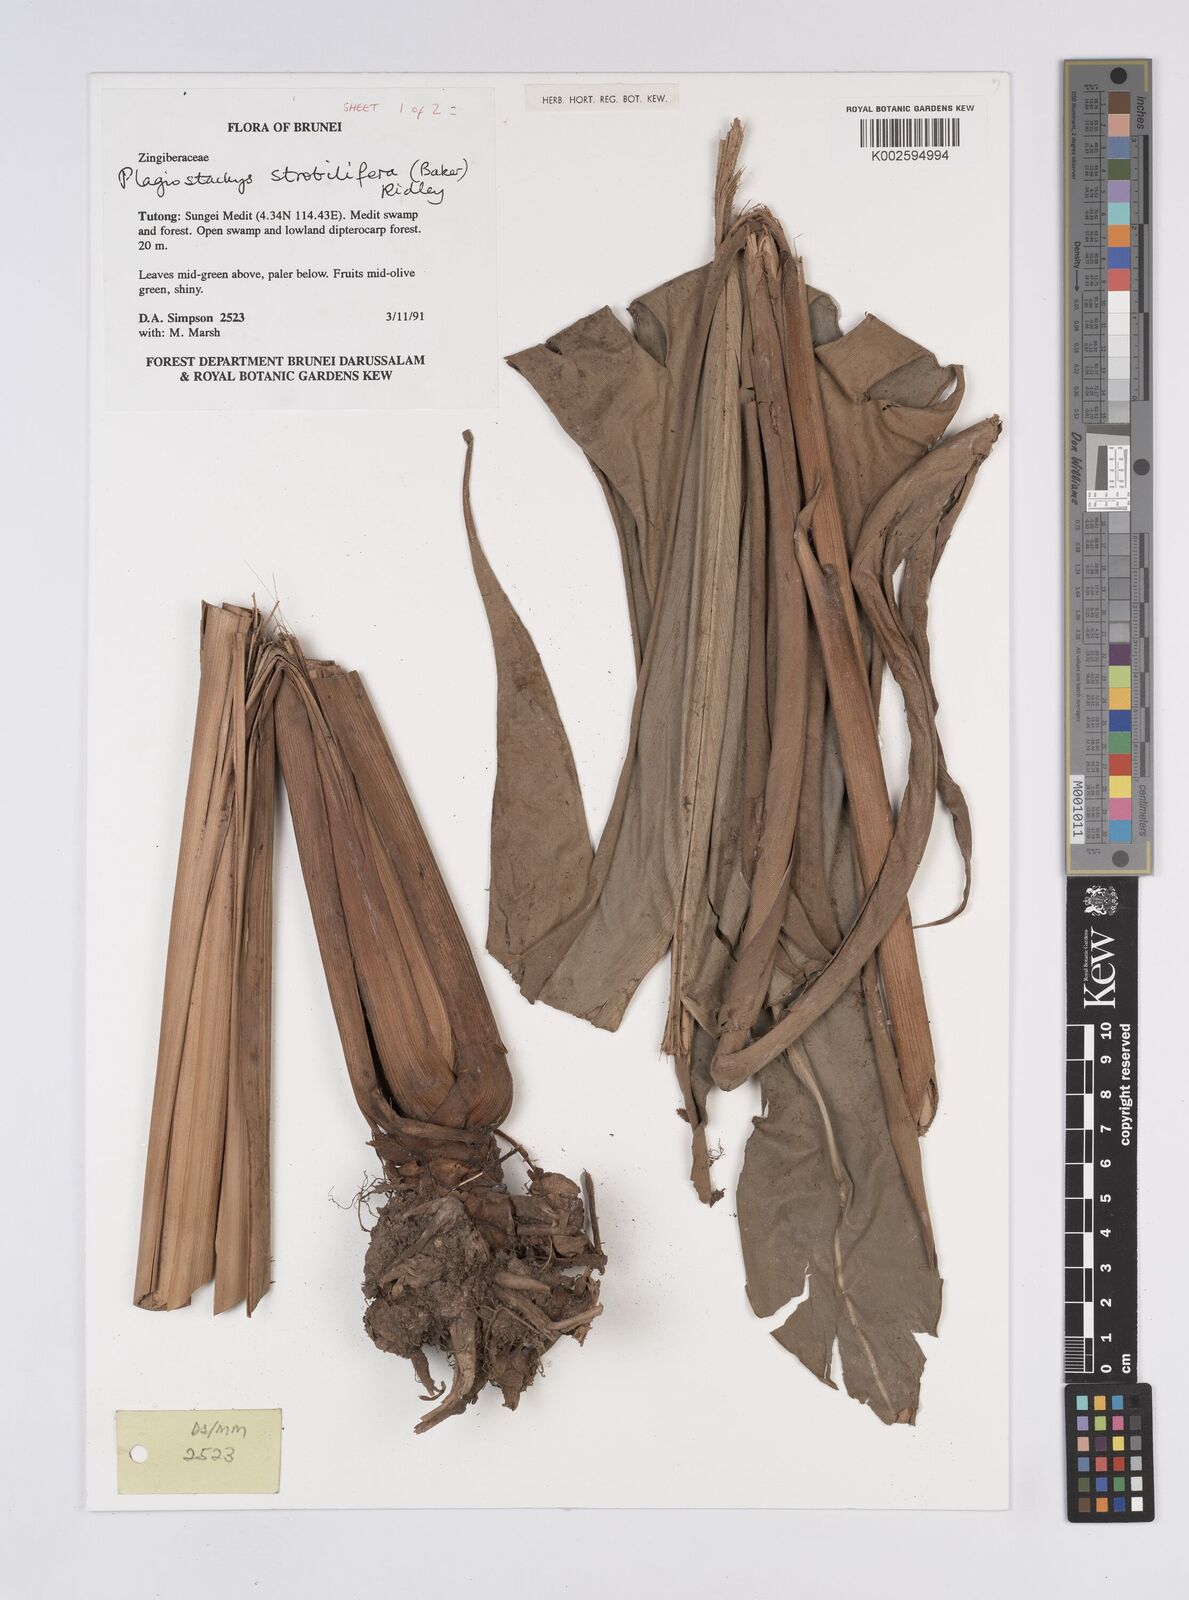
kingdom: Plantae
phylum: Tracheophyta
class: Liliopsida
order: Zingiberales
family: Zingiberaceae
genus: Plagiostachys
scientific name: Plagiostachys strobilifera
